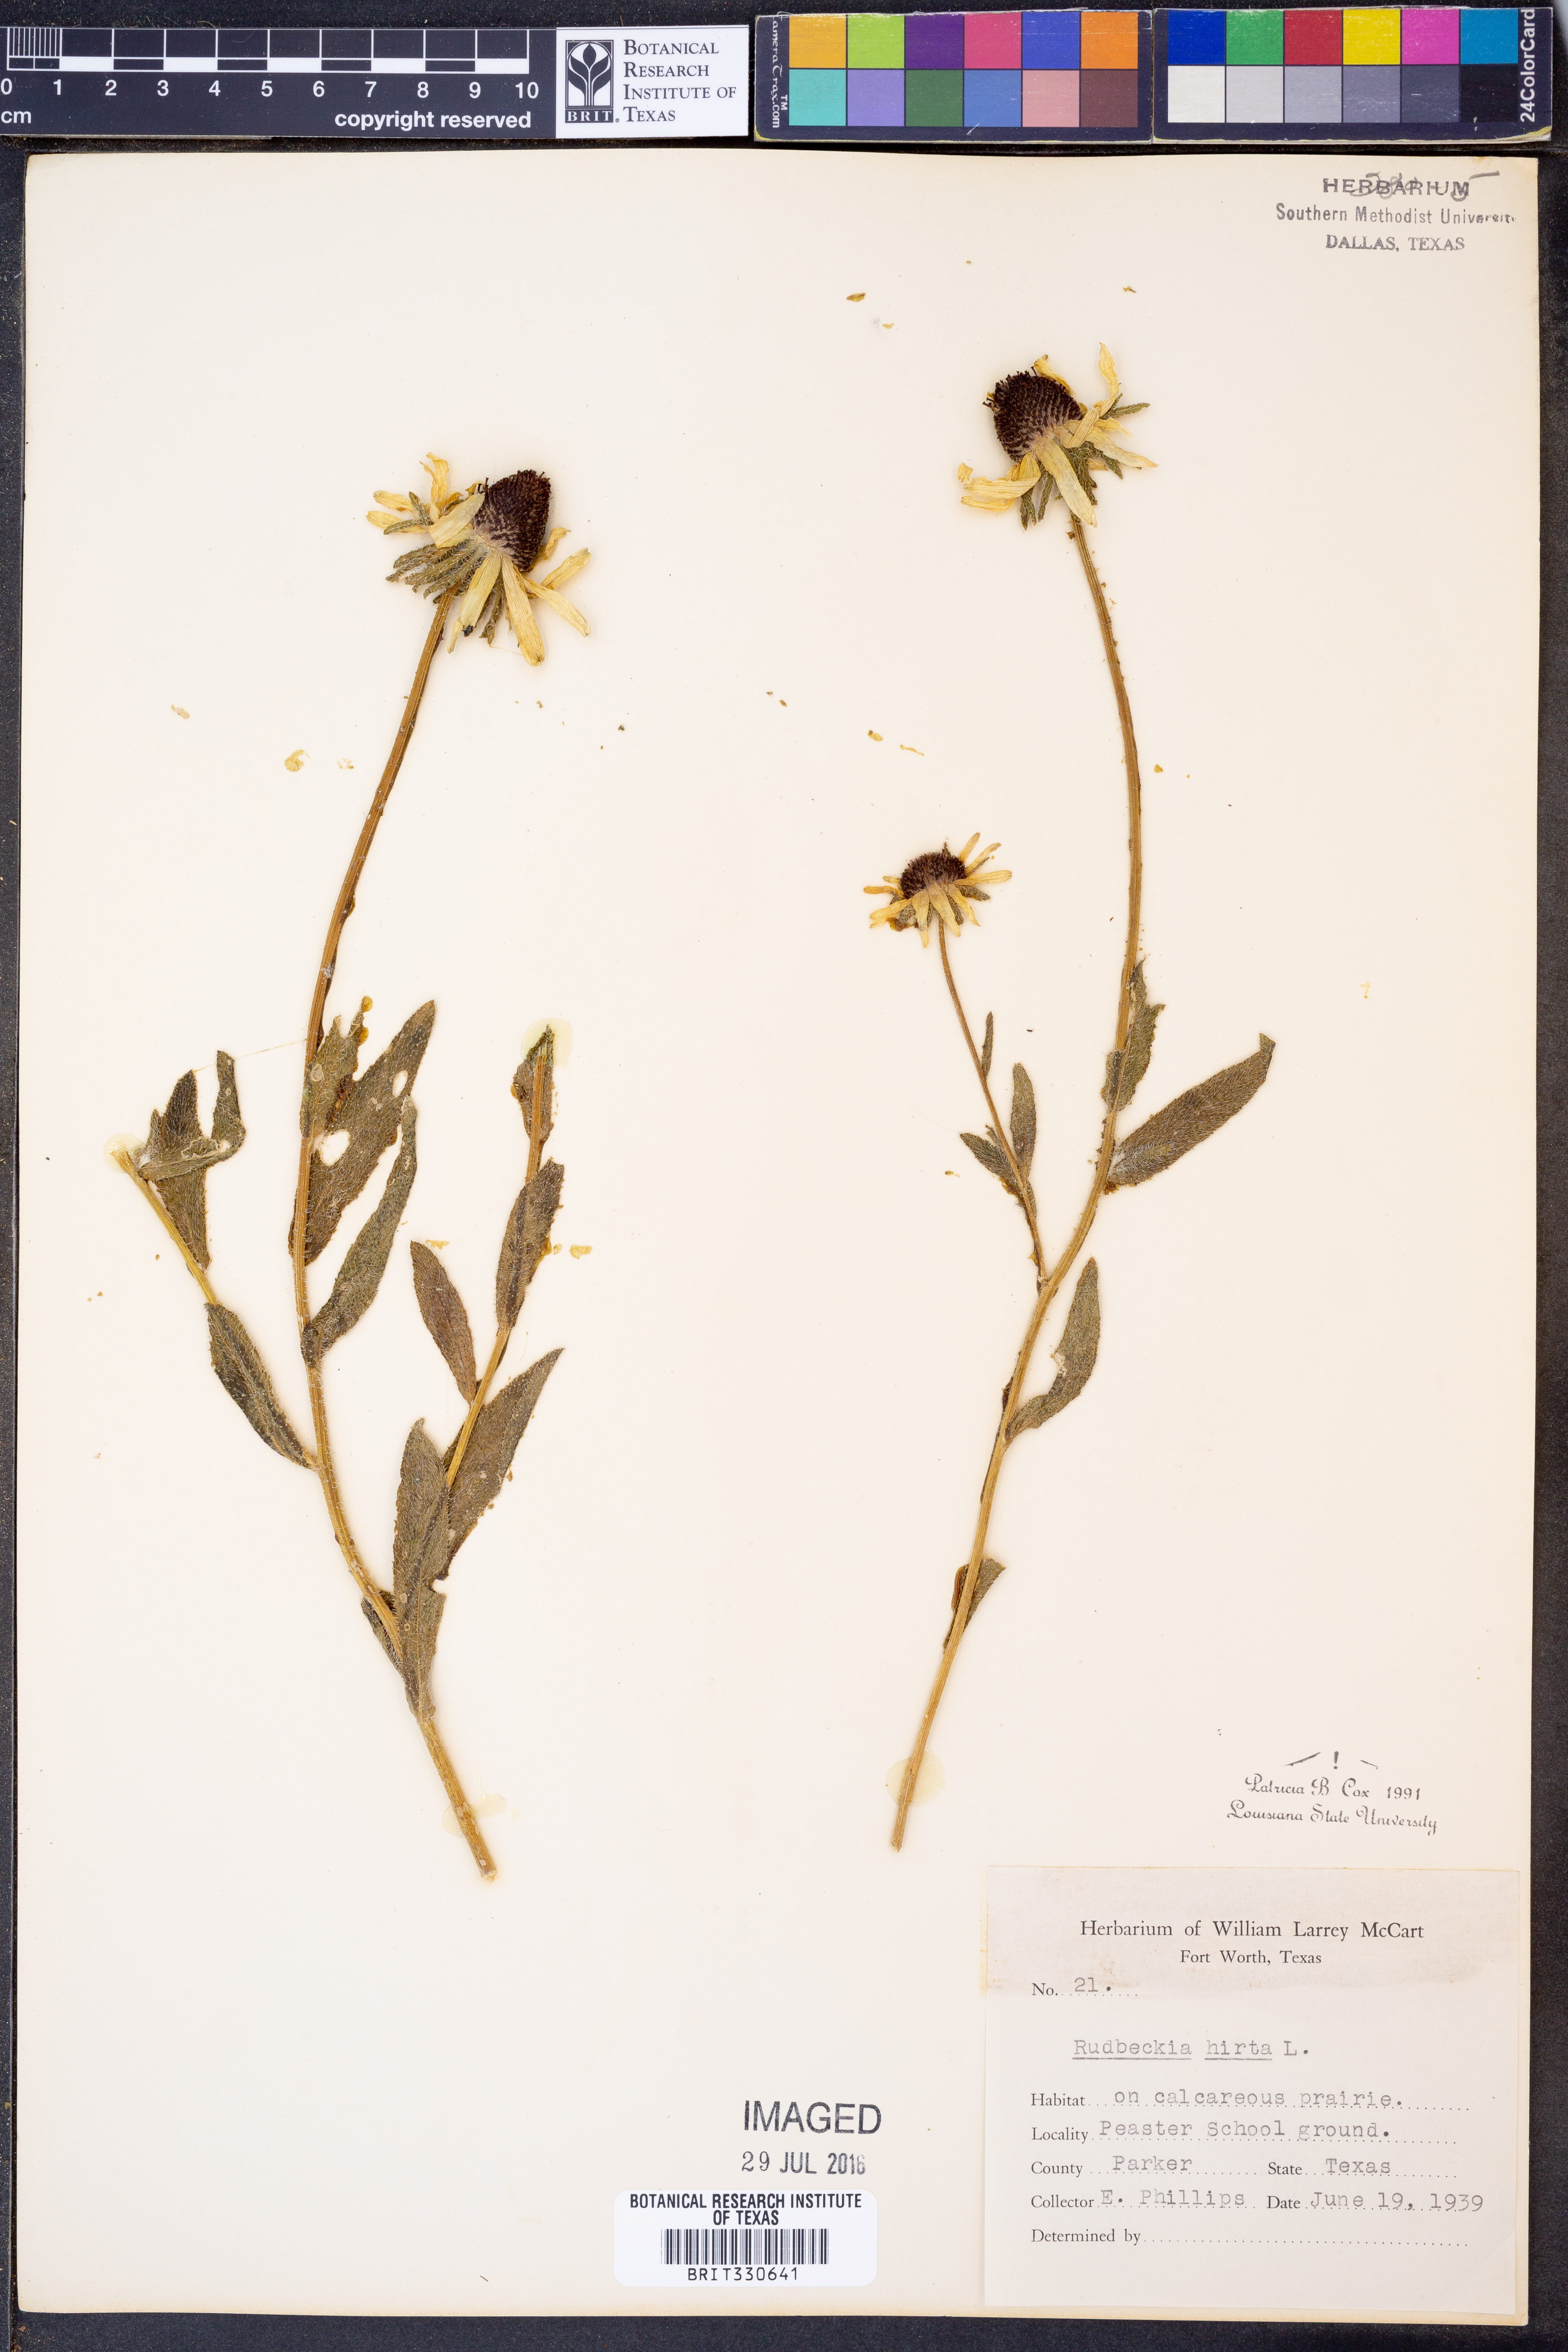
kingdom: Plantae
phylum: Tracheophyta
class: Magnoliopsida
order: Asterales
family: Asteraceae
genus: Rudbeckia
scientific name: Rudbeckia hirta
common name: Black-eyed-susan
